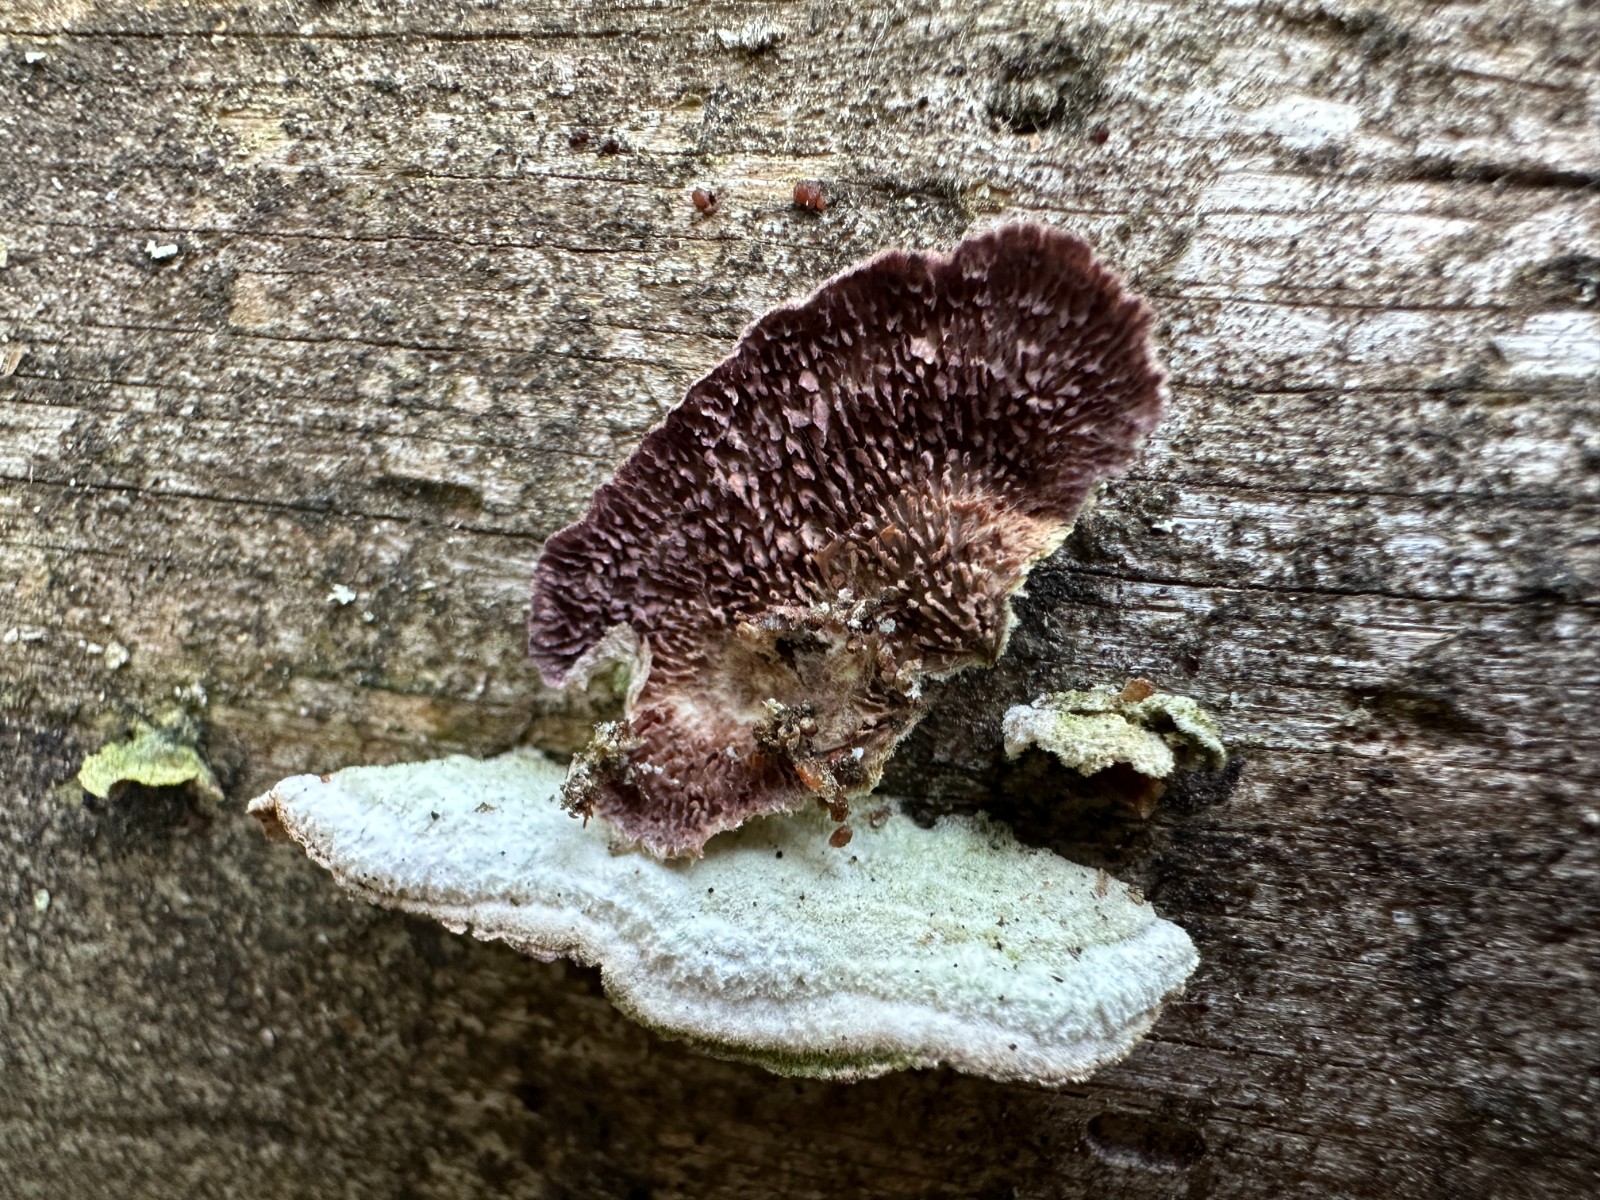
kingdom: Fungi
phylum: Basidiomycota
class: Agaricomycetes
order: Hymenochaetales
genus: Trichaptum
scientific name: Trichaptum fuscoviolaceum
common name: tandet violporesvamp
